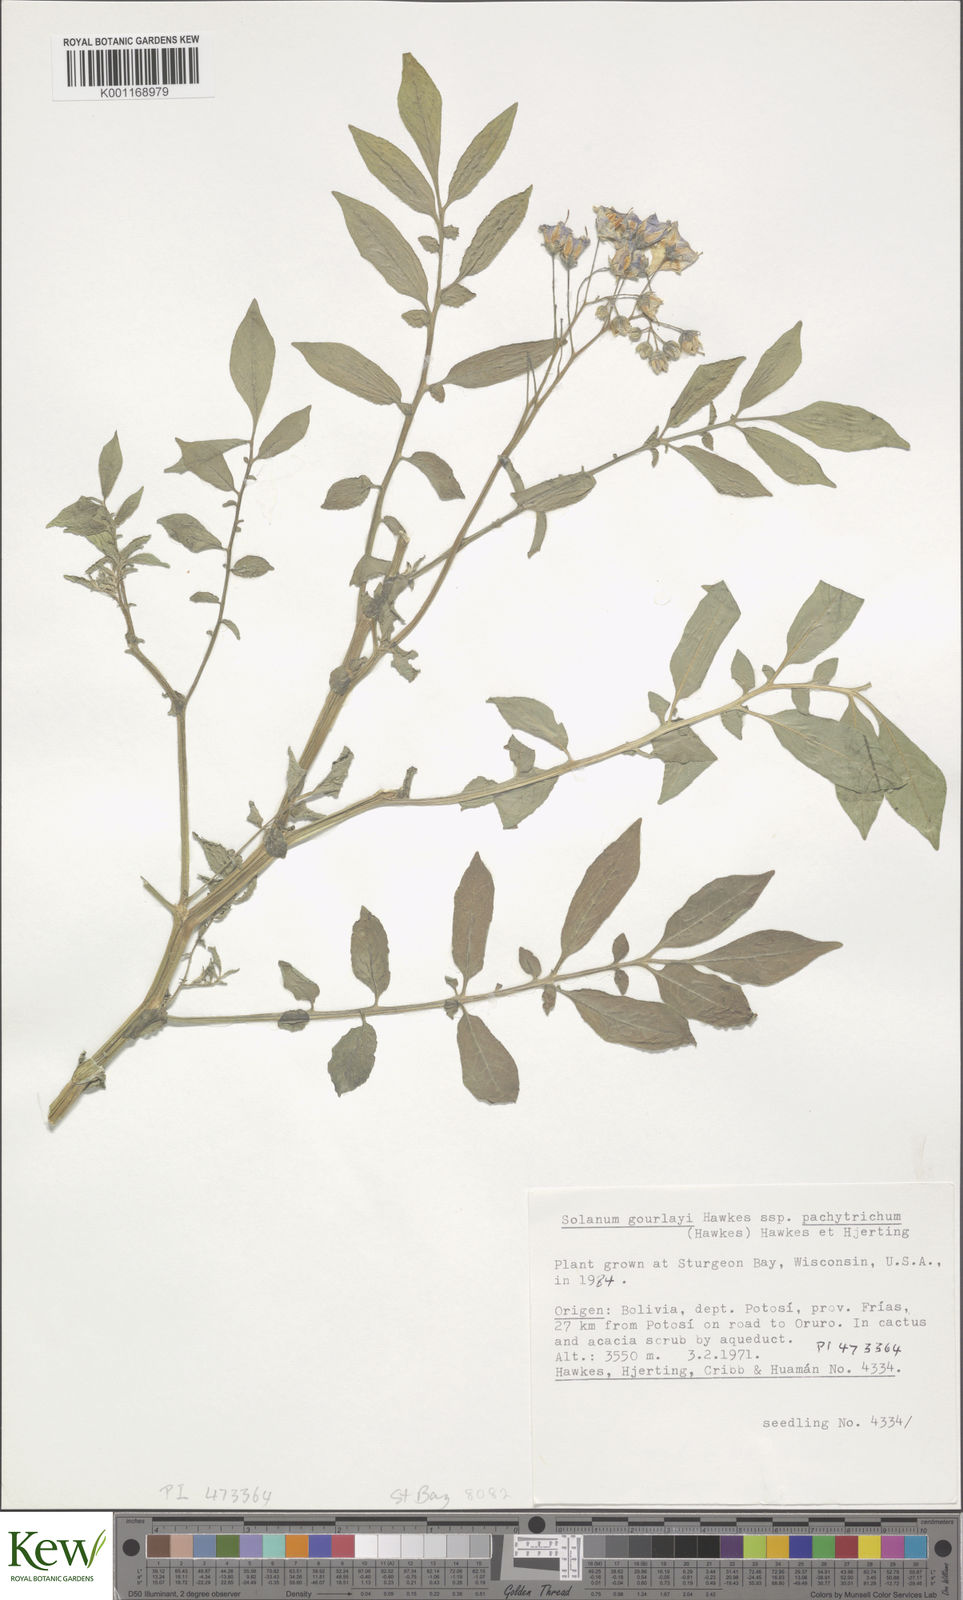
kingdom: Plantae
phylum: Tracheophyta
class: Magnoliopsida
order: Solanales
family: Solanaceae
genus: Solanum
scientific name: Solanum brevicaule
